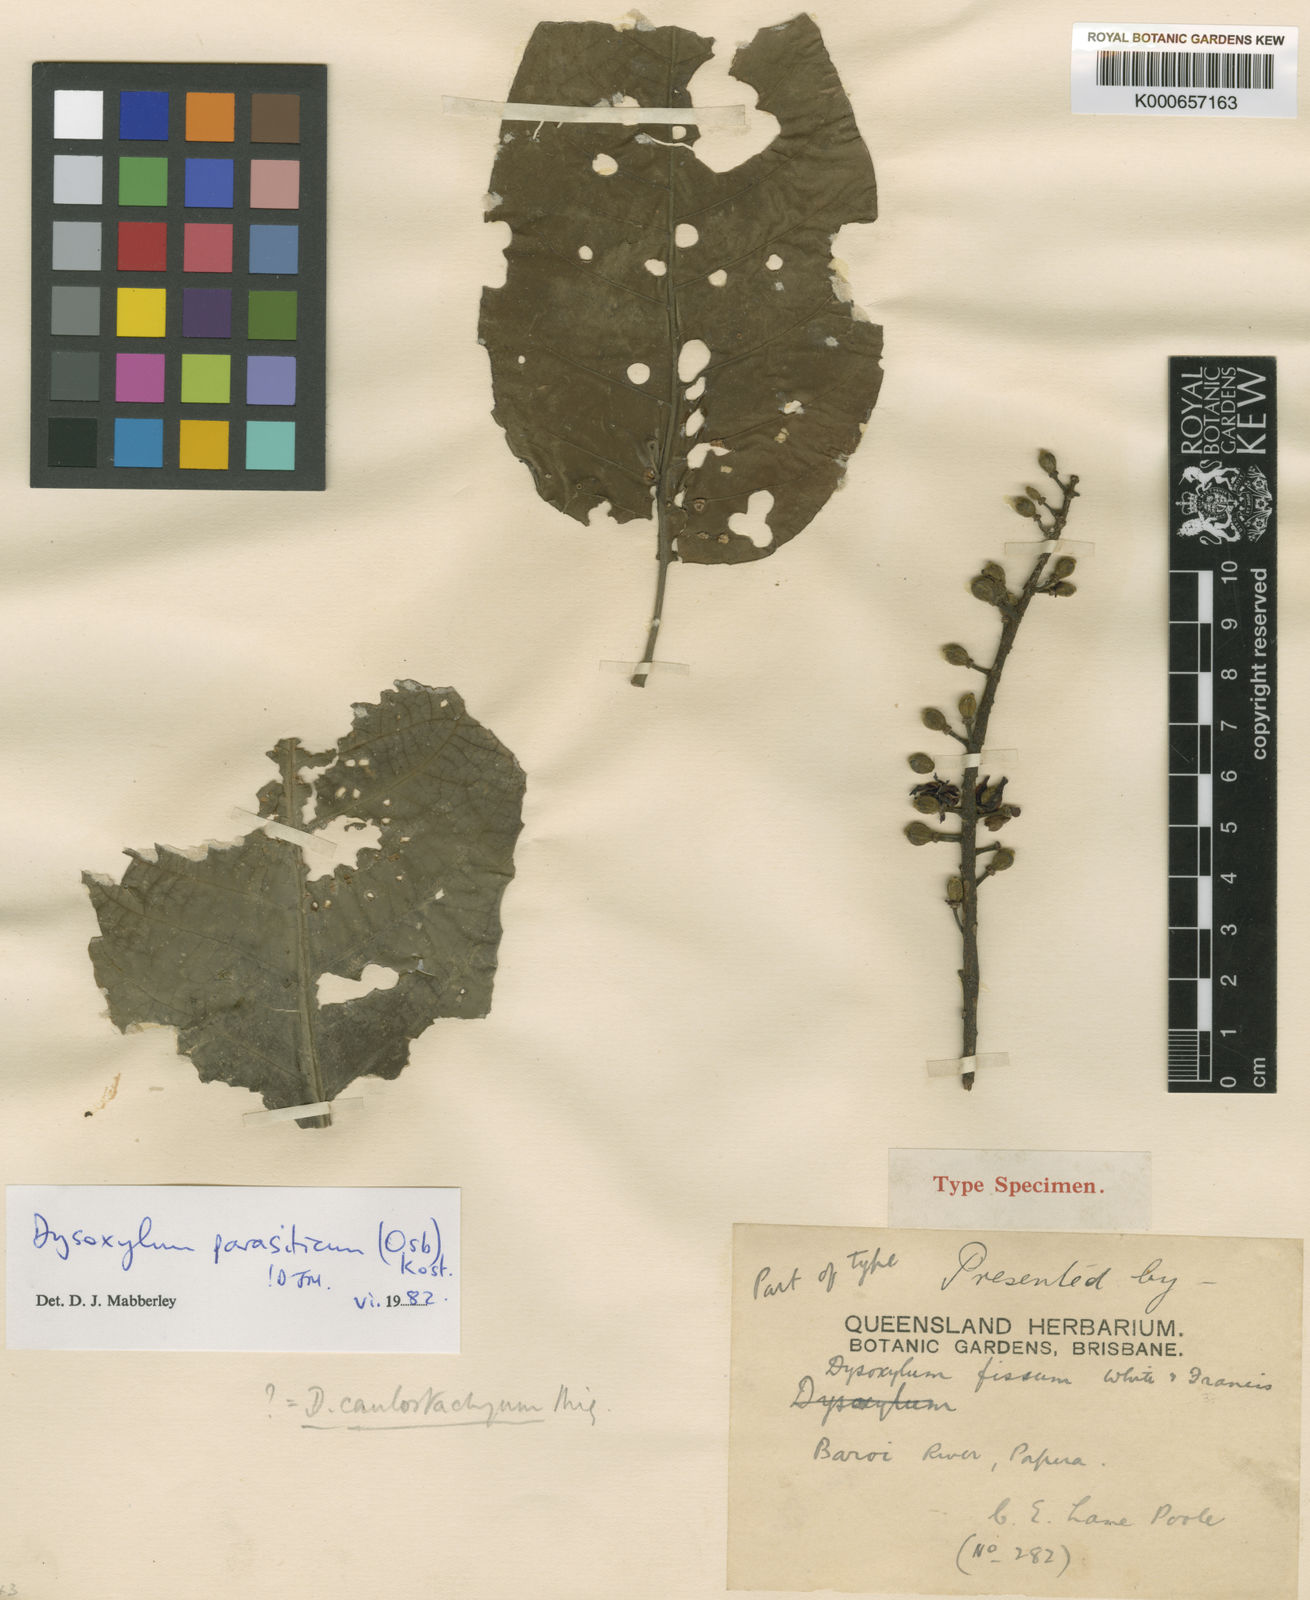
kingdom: Plantae
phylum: Tracheophyta
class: Magnoliopsida
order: Sapindales
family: Meliaceae
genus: Epicharis
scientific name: Epicharis parasitica
